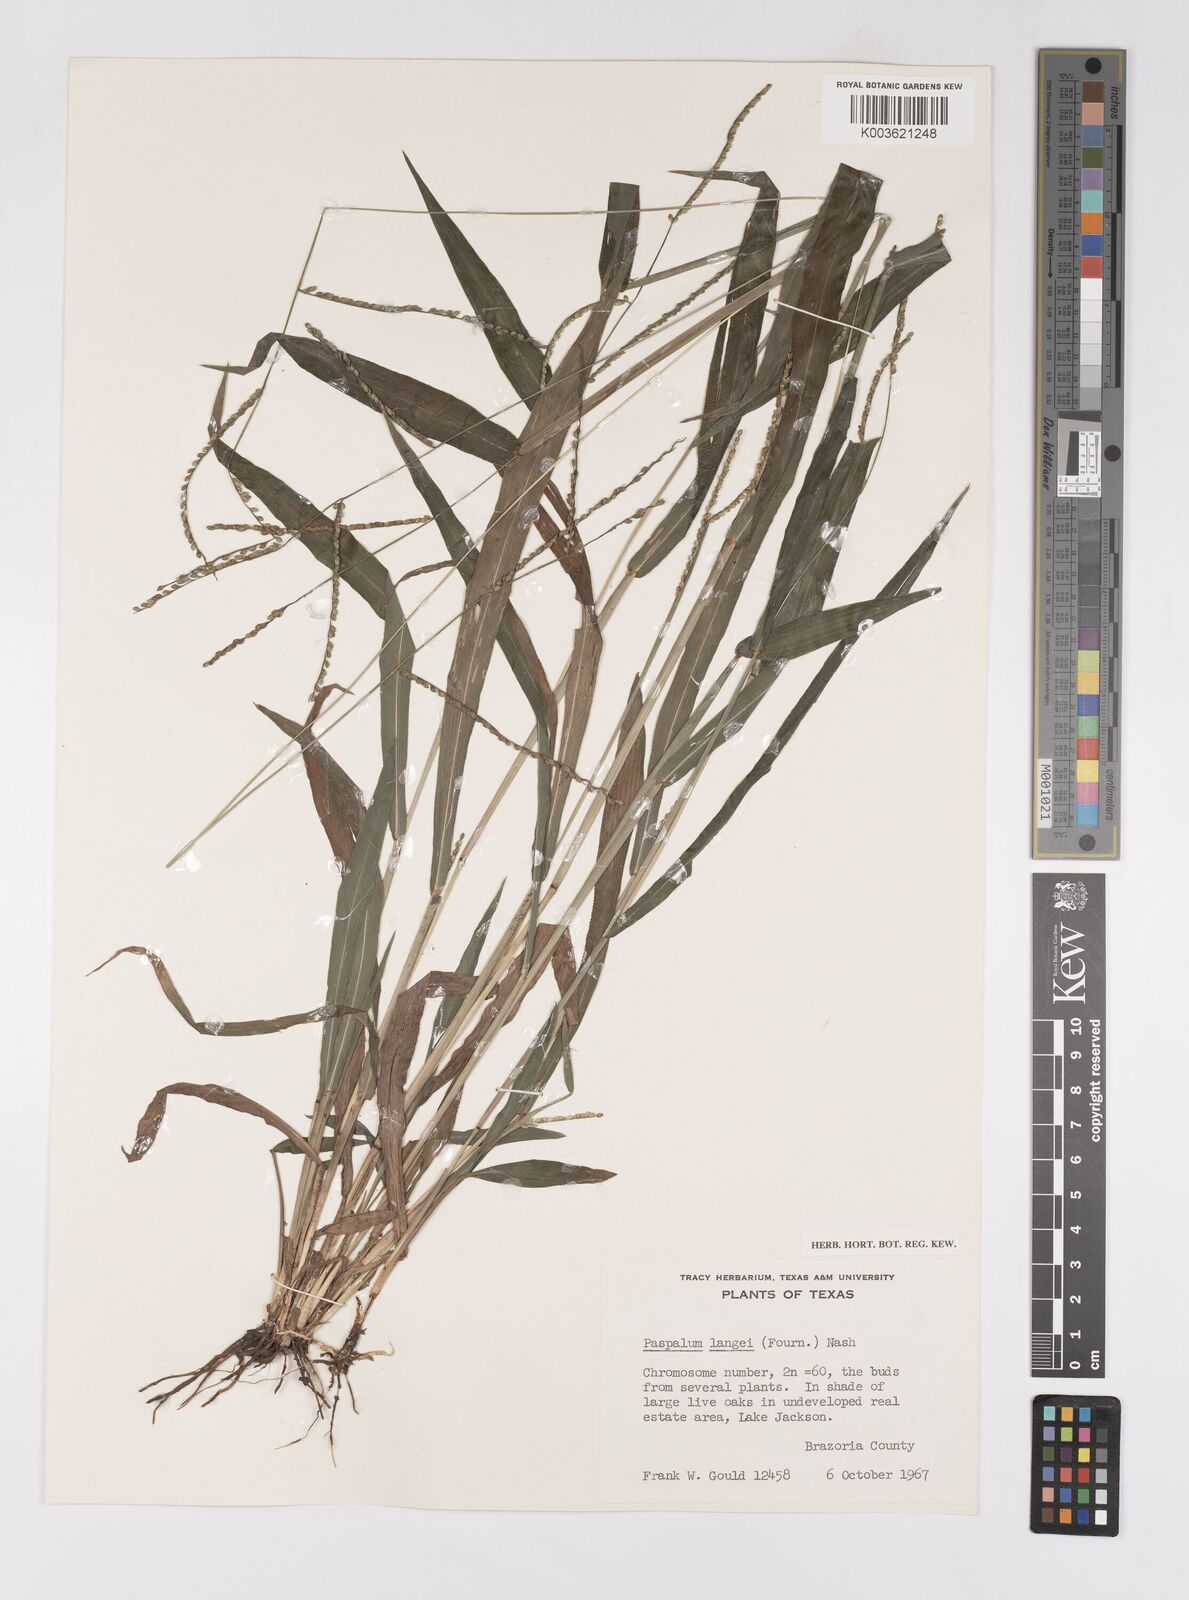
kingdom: Plantae
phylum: Tracheophyta
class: Liliopsida
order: Poales
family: Poaceae
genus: Paspalum
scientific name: Paspalum langei
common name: Rusty-seed paspalum
